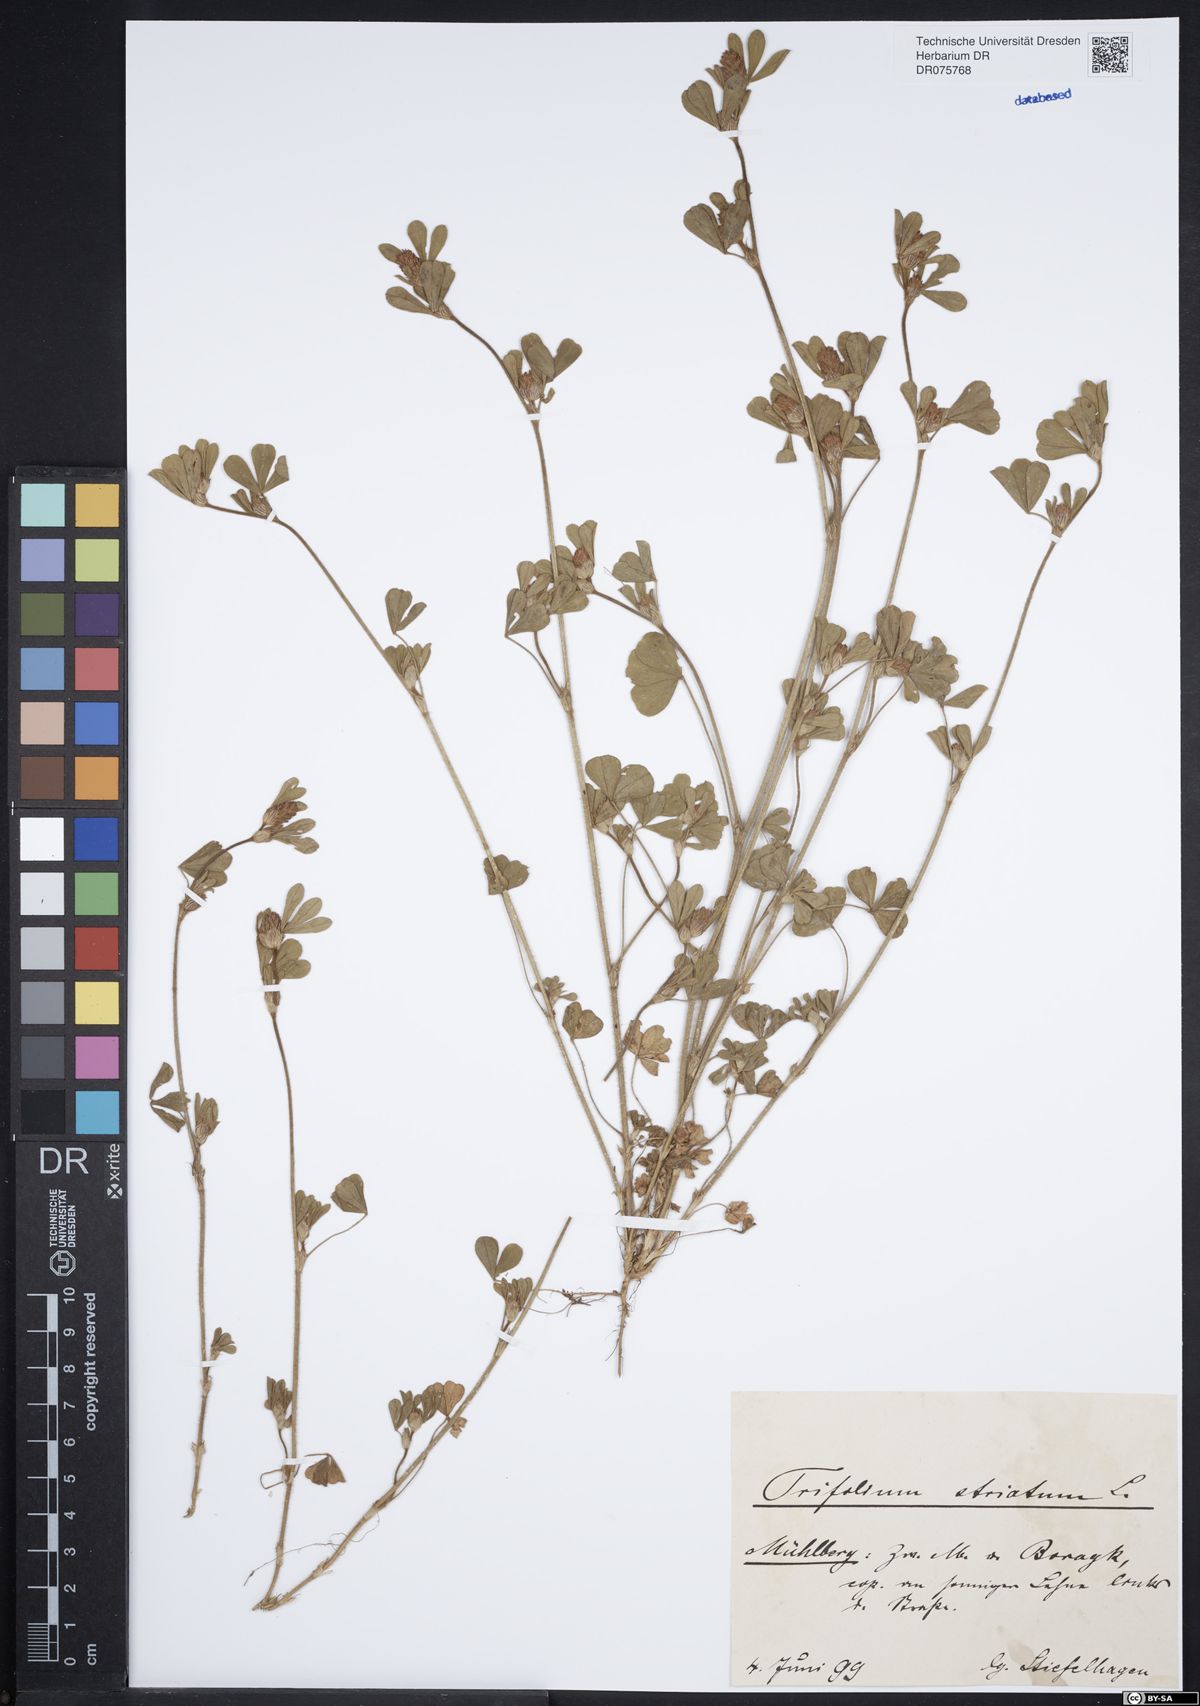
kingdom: Plantae
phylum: Tracheophyta
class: Magnoliopsida
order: Fabales
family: Fabaceae
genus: Trifolium
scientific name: Trifolium striatum
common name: Knotted clover
